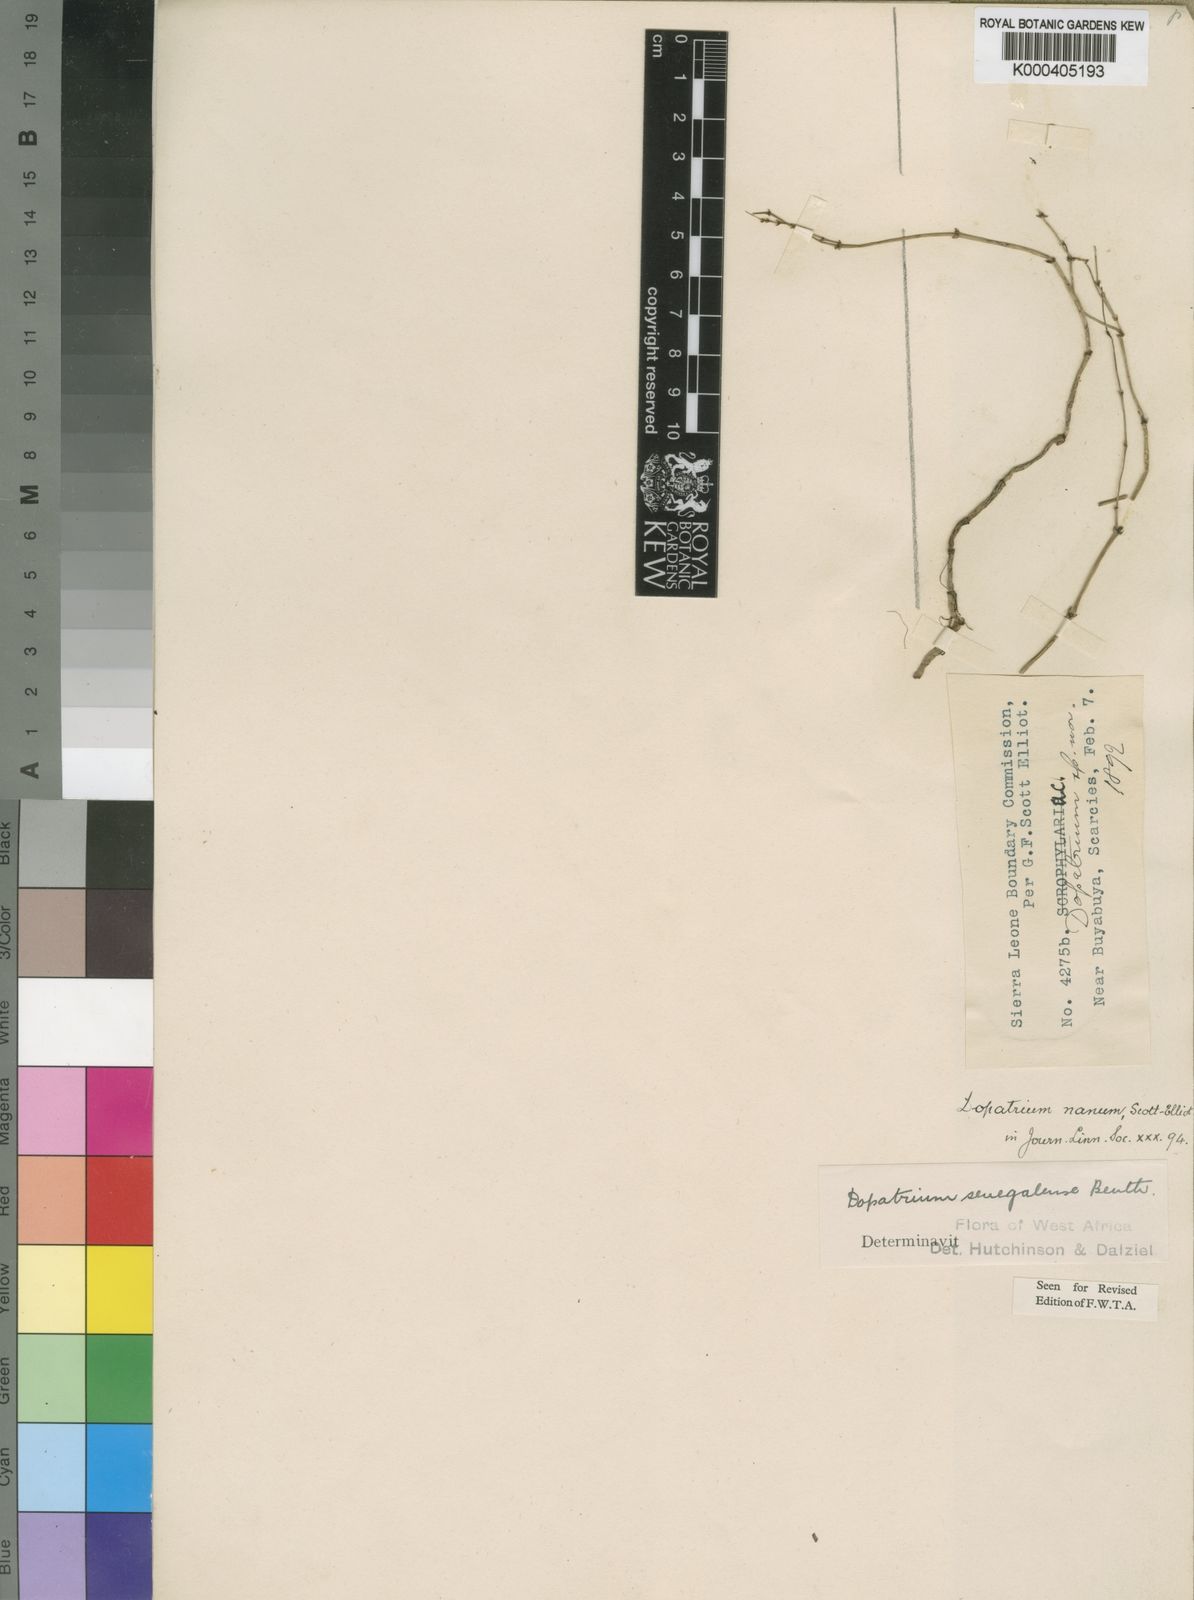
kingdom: Plantae
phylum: Tracheophyta
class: Magnoliopsida
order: Lamiales
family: Plantaginaceae
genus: Dopatrium
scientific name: Dopatrium senegalense
